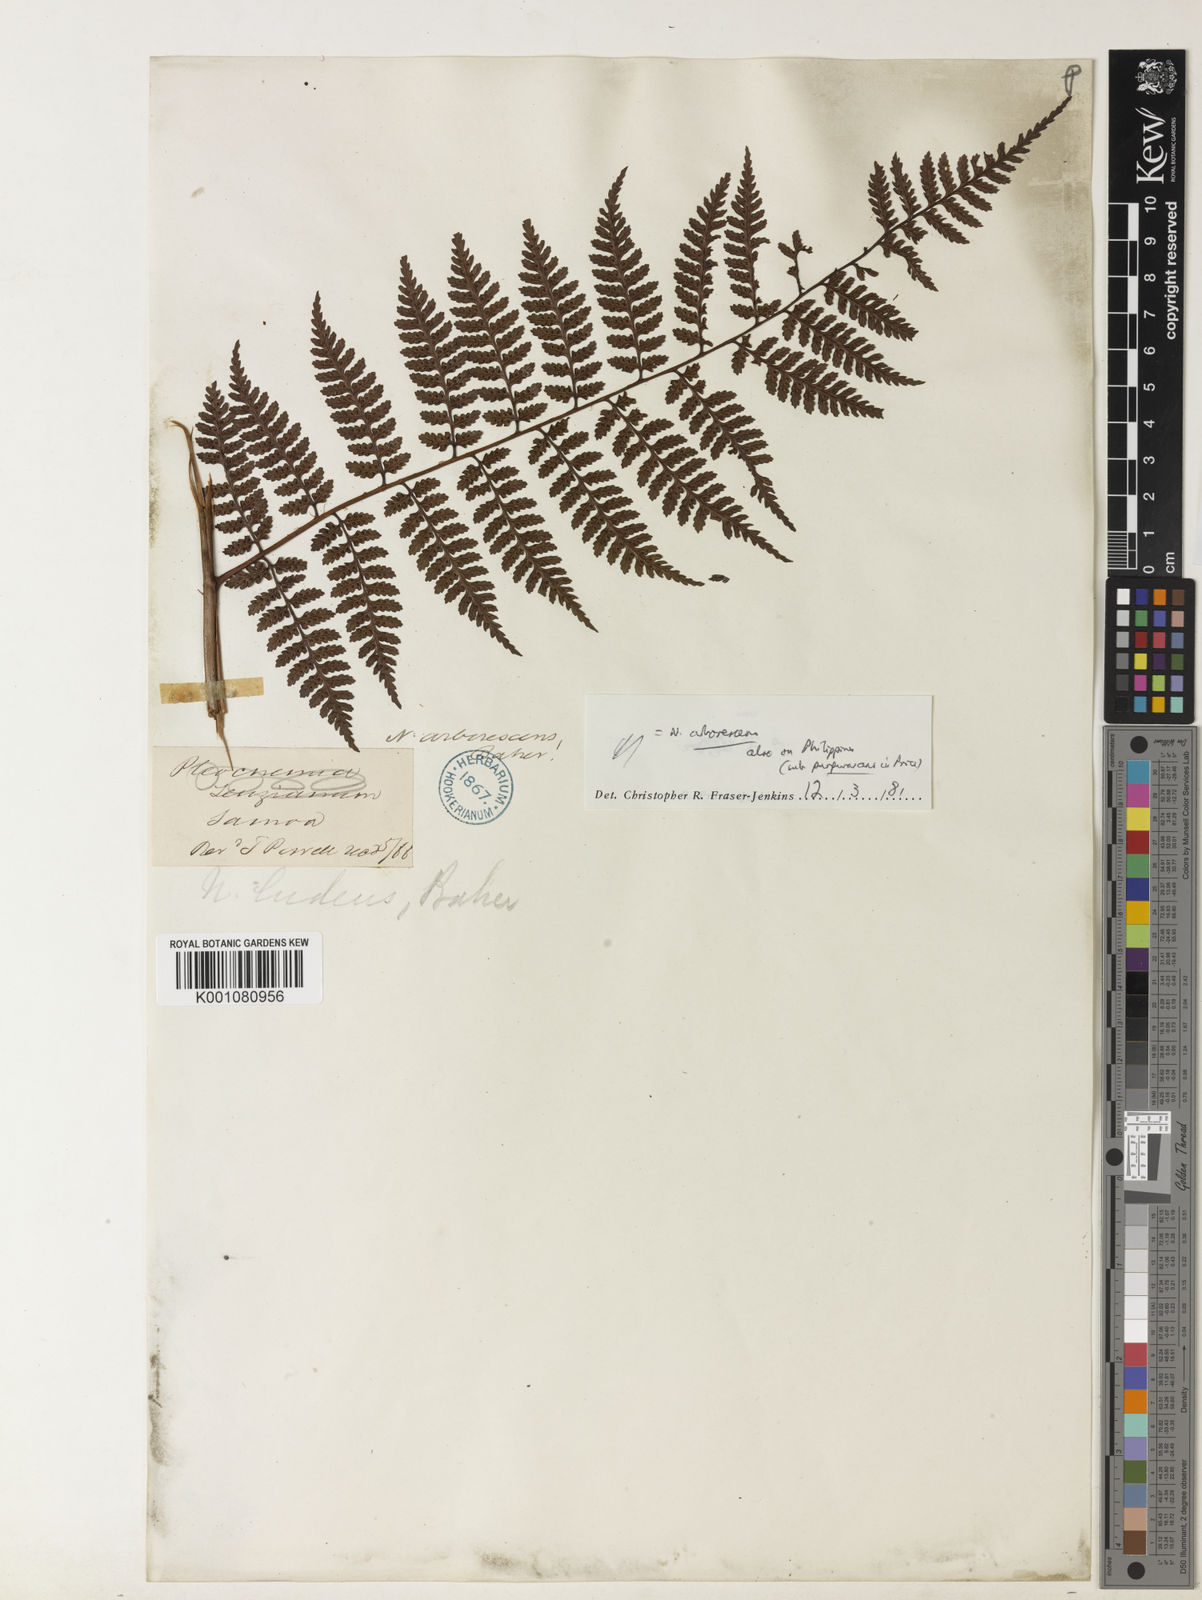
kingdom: Plantae
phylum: Tracheophyta
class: Polypodiopsida
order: Polypodiales
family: Dryopteridaceae
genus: Dryopteris
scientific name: Dryopteris arborescens
